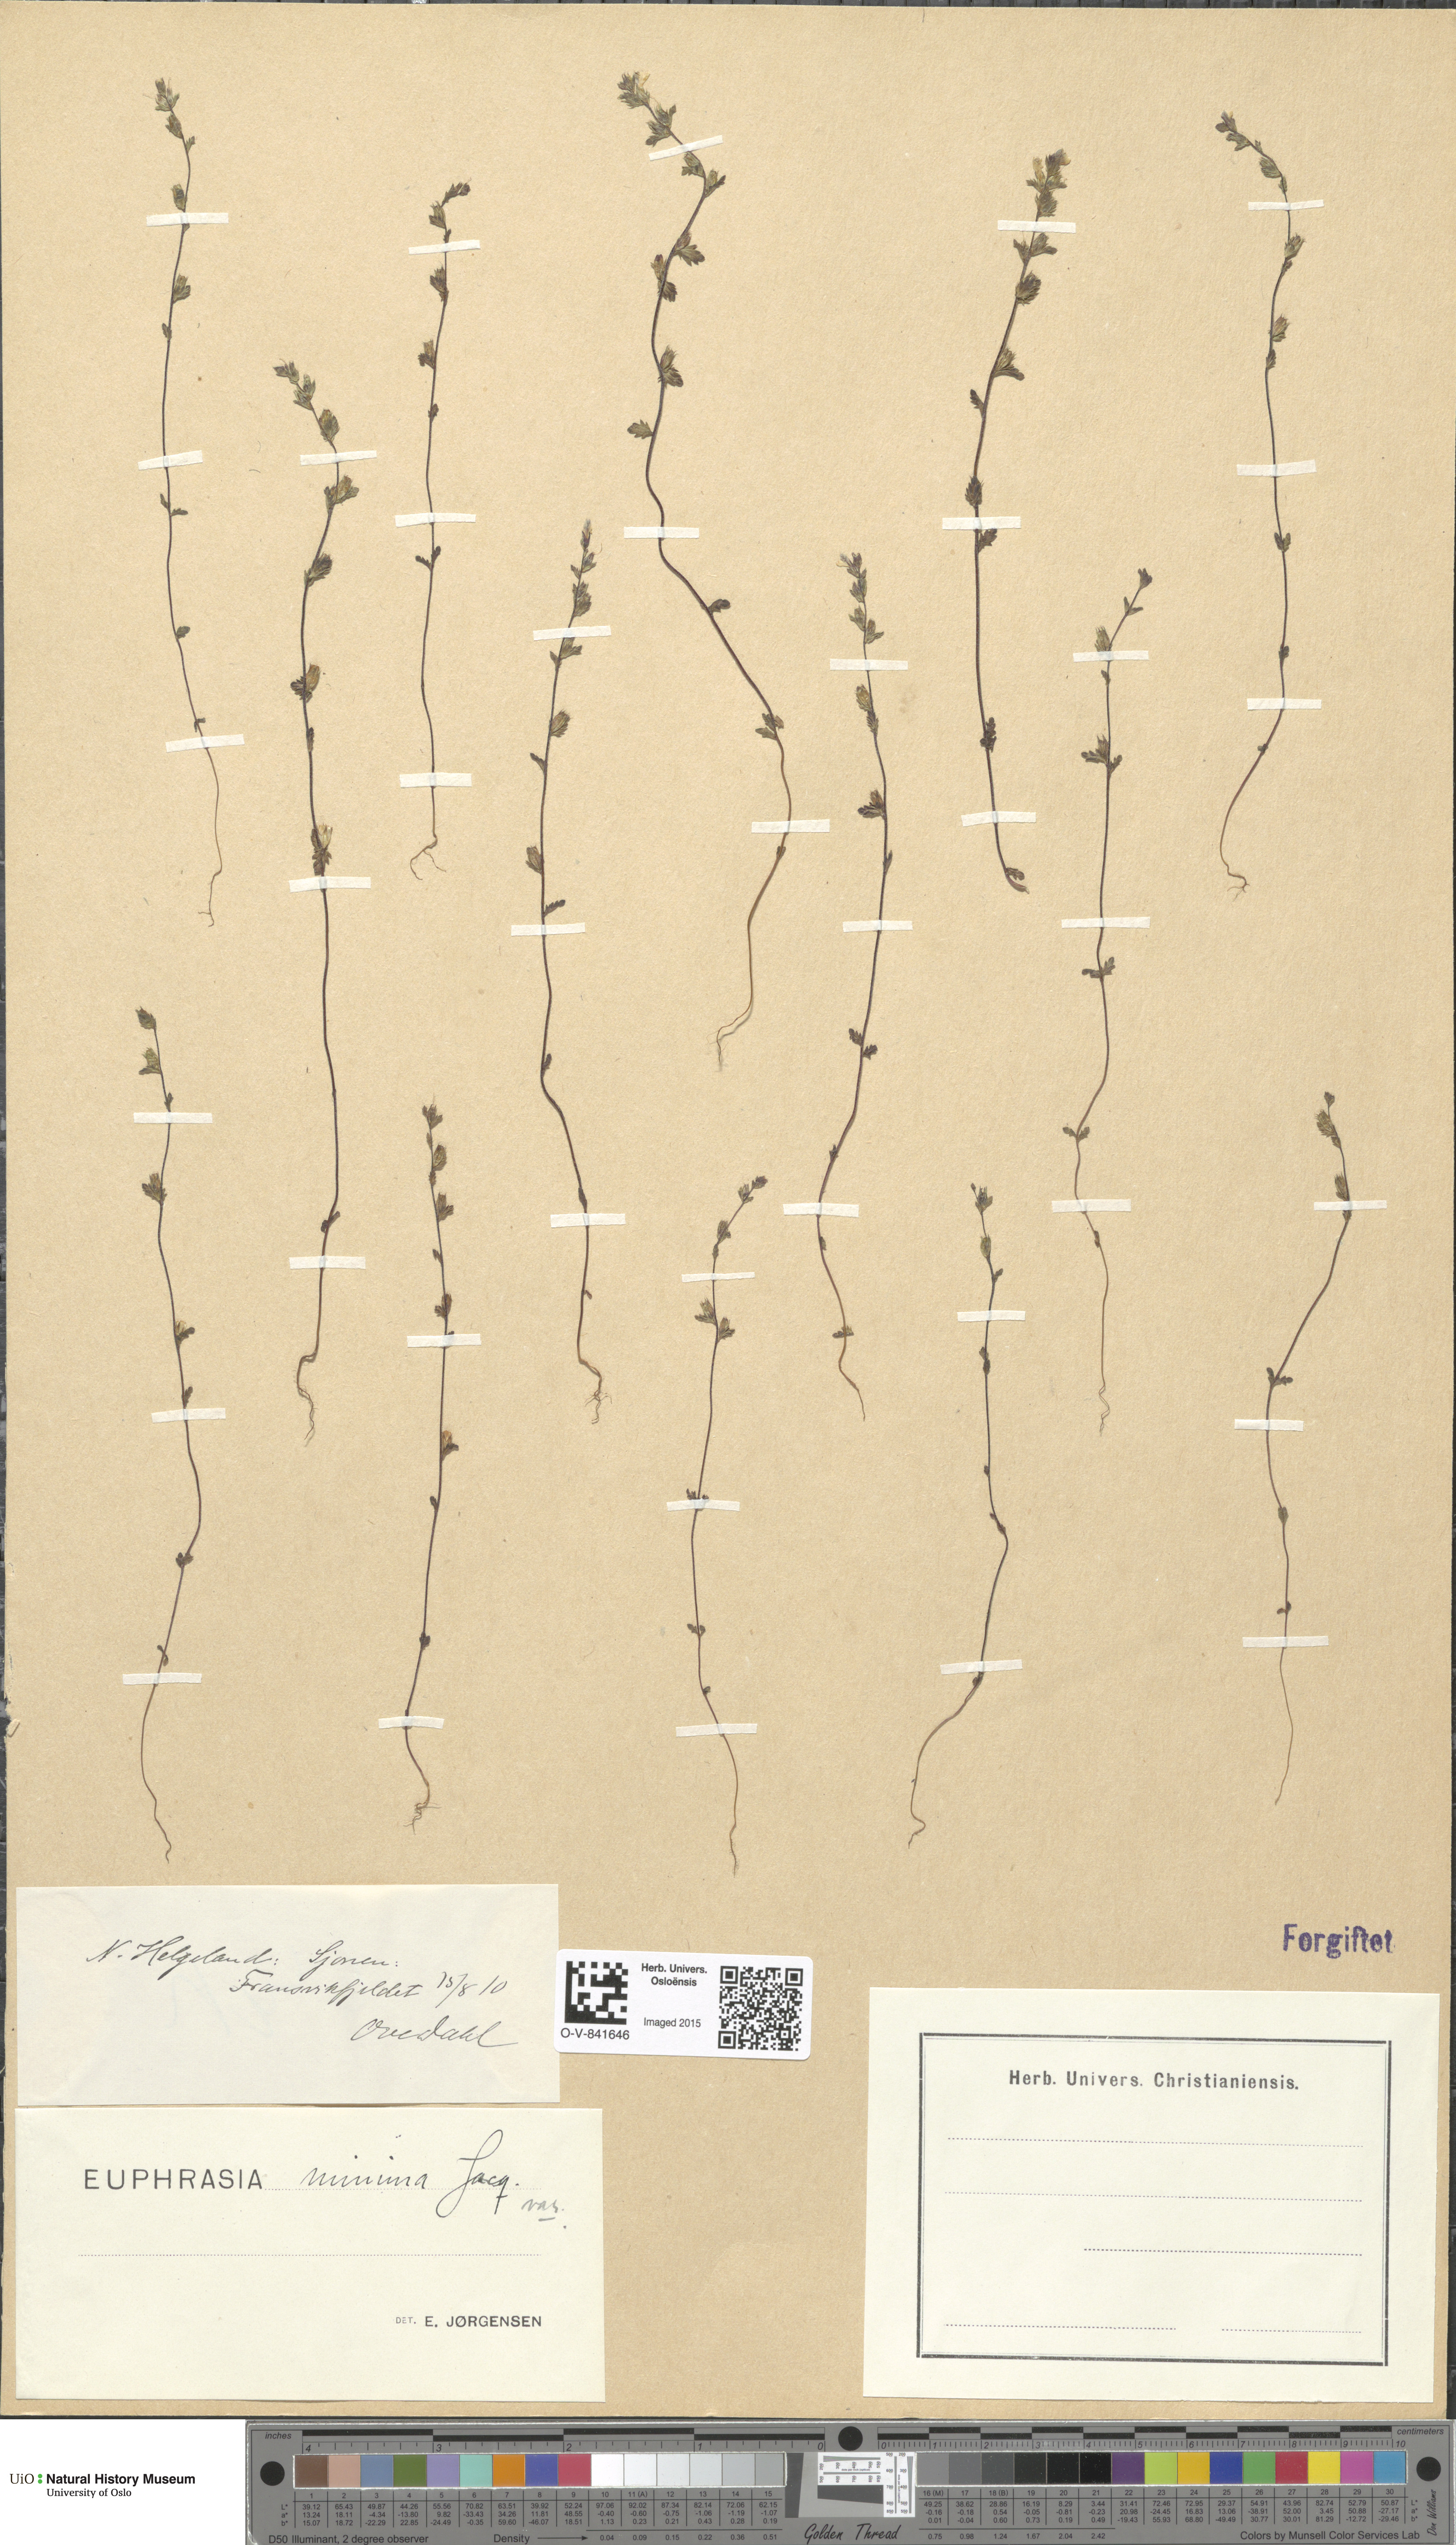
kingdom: Plantae
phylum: Tracheophyta
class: Magnoliopsida
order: Lamiales
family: Orobanchaceae
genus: Euphrasia
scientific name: Euphrasia wettsteinii
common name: Wettstein's eyebright
